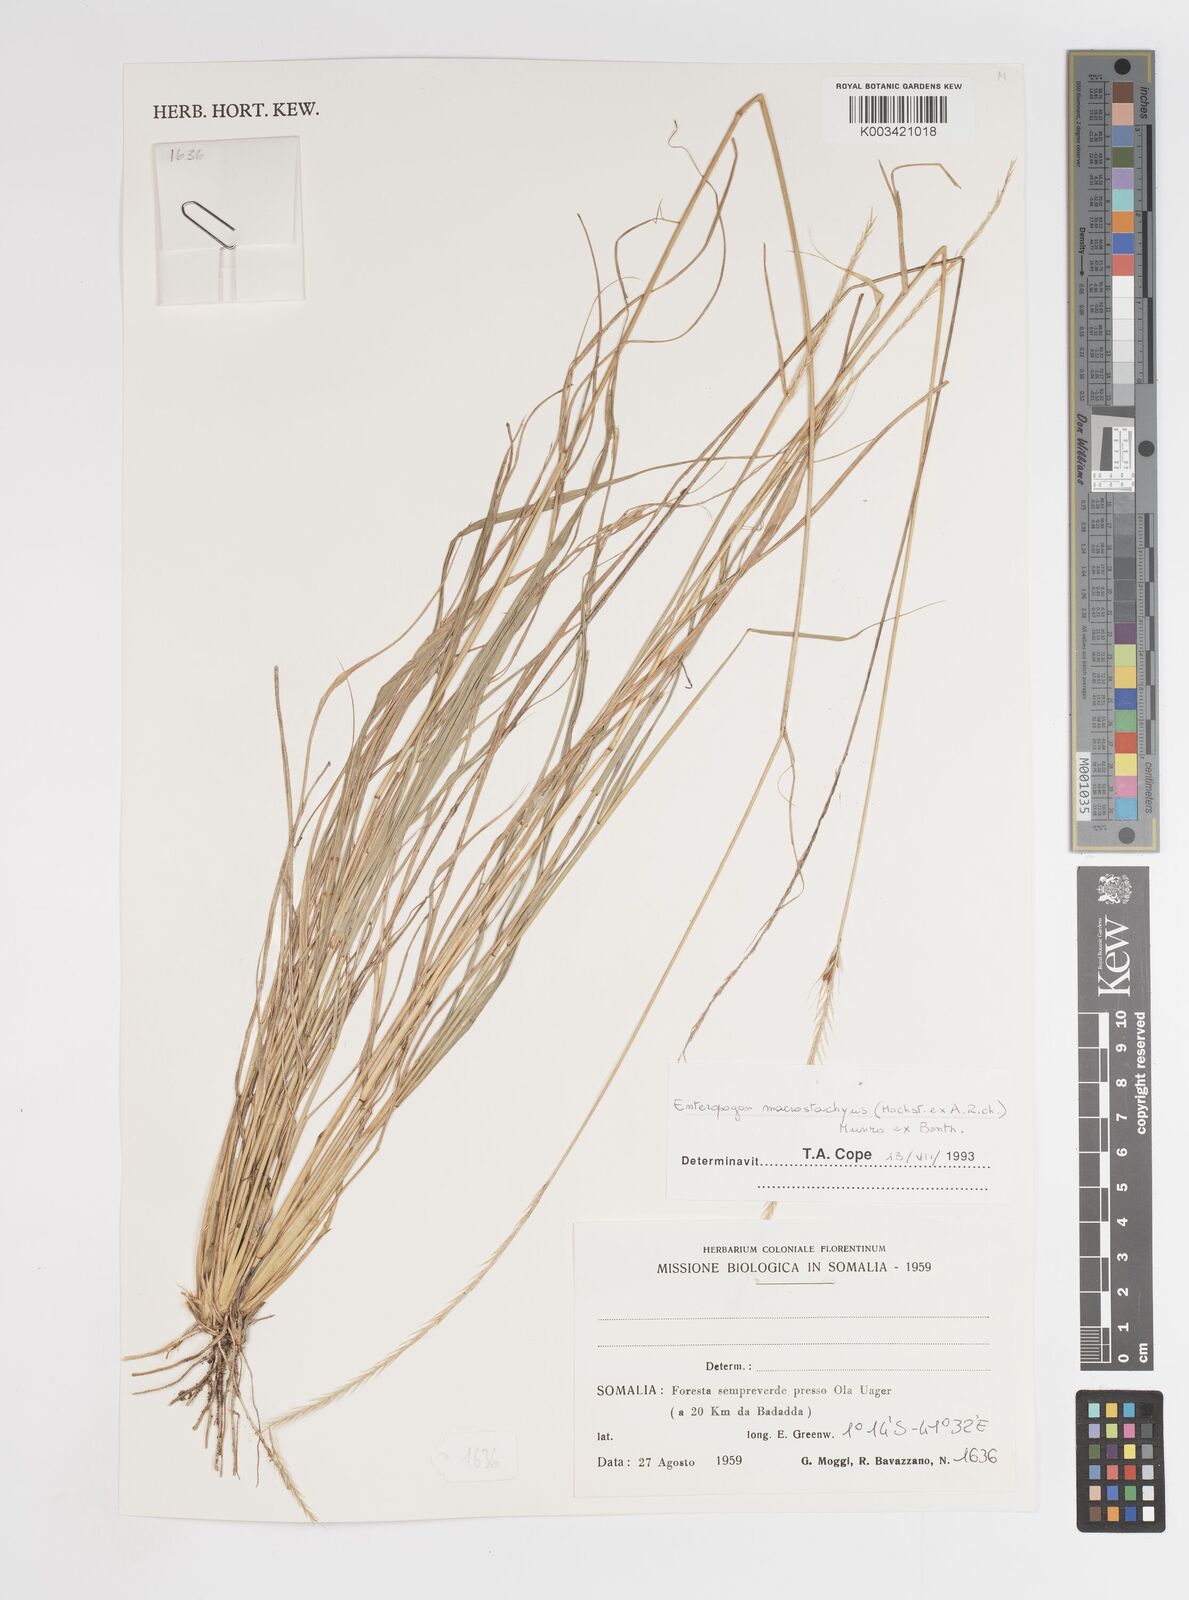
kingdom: Plantae
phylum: Tracheophyta
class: Liliopsida
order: Poales
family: Poaceae
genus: Enteropogon
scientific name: Enteropogon macrostachyus
